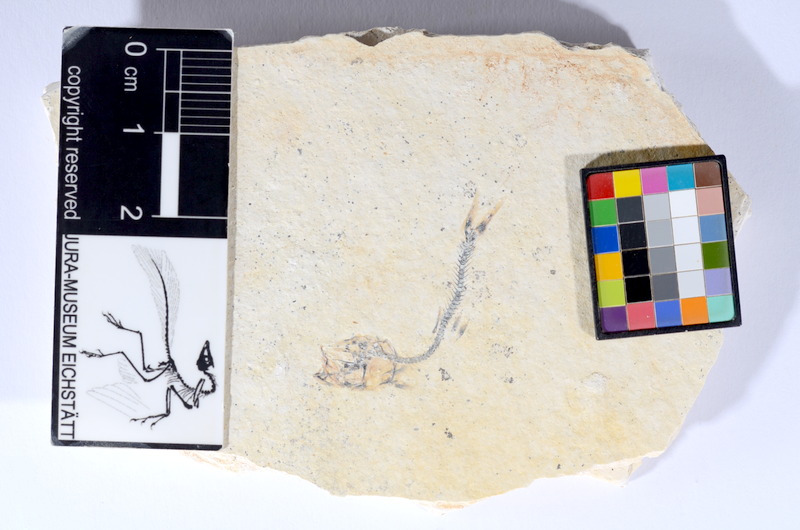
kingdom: Animalia
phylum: Chordata
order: Salmoniformes
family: Orthogonikleithridae
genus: Orthogonikleithrus
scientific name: Orthogonikleithrus hoelli
